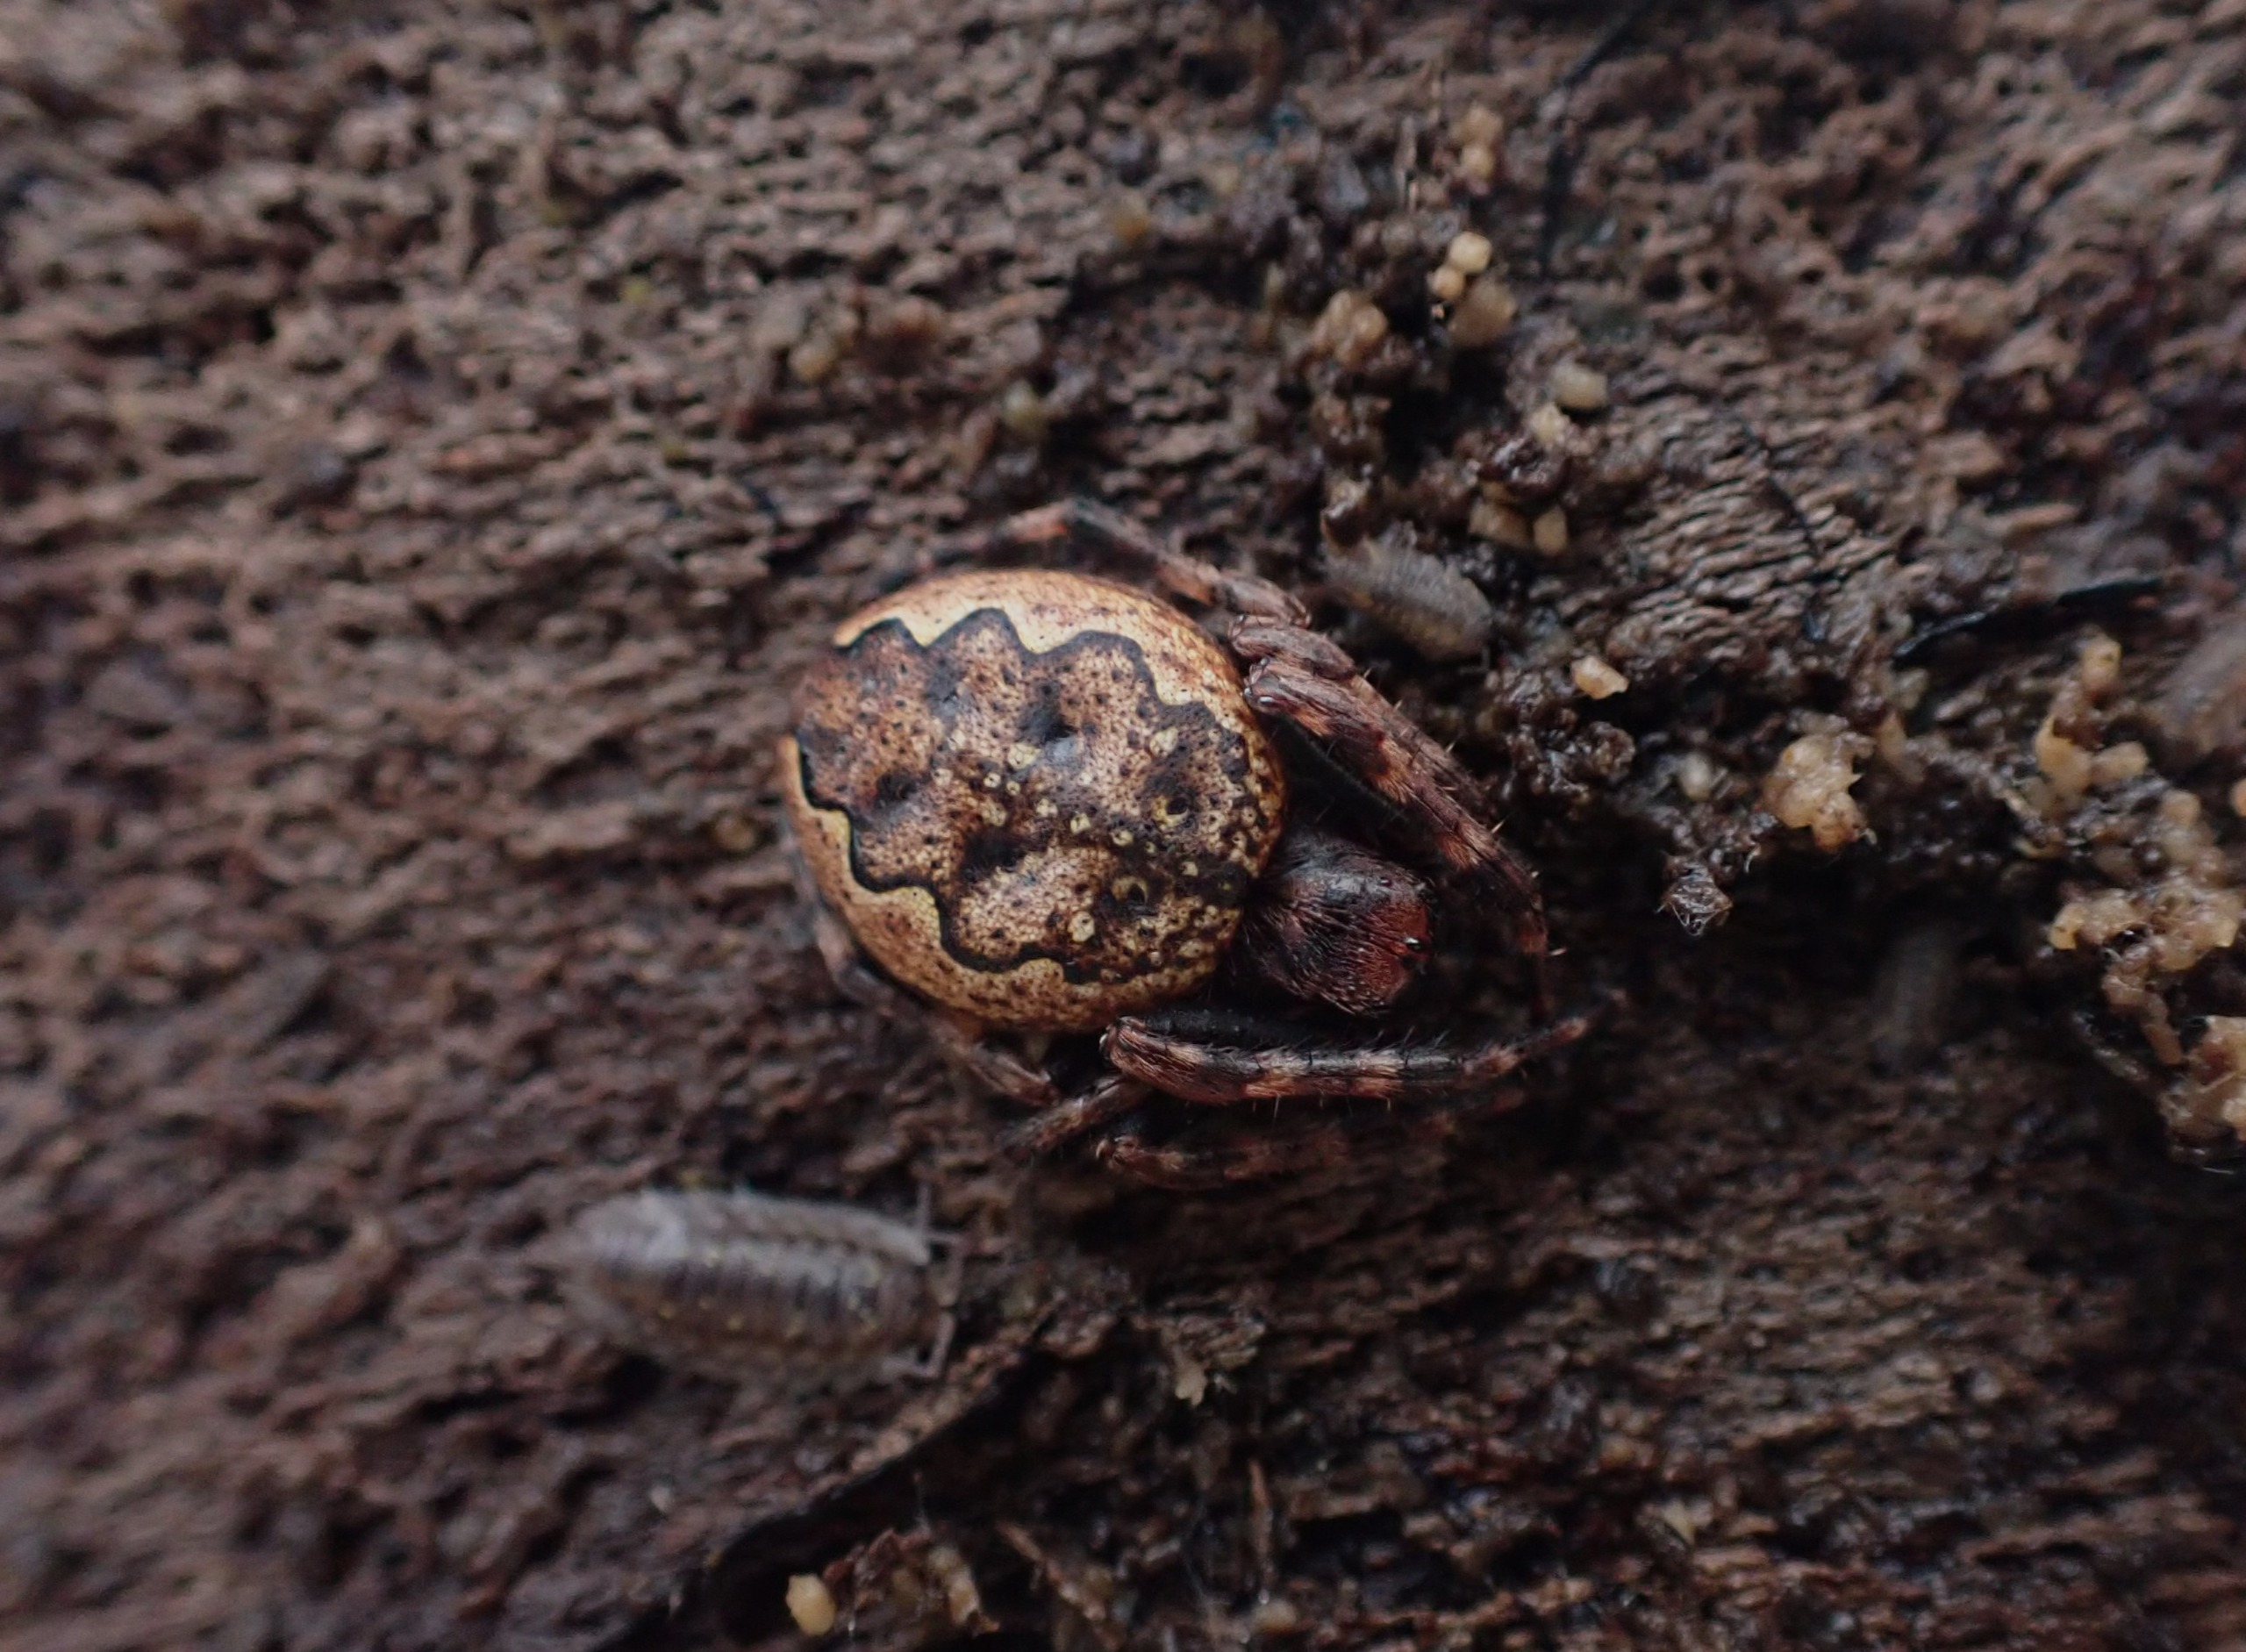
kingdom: Animalia
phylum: Arthropoda
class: Arachnida
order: Araneae
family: Araneidae
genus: Nuctenea
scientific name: Nuctenea umbratica
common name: Flad hjulspinder
